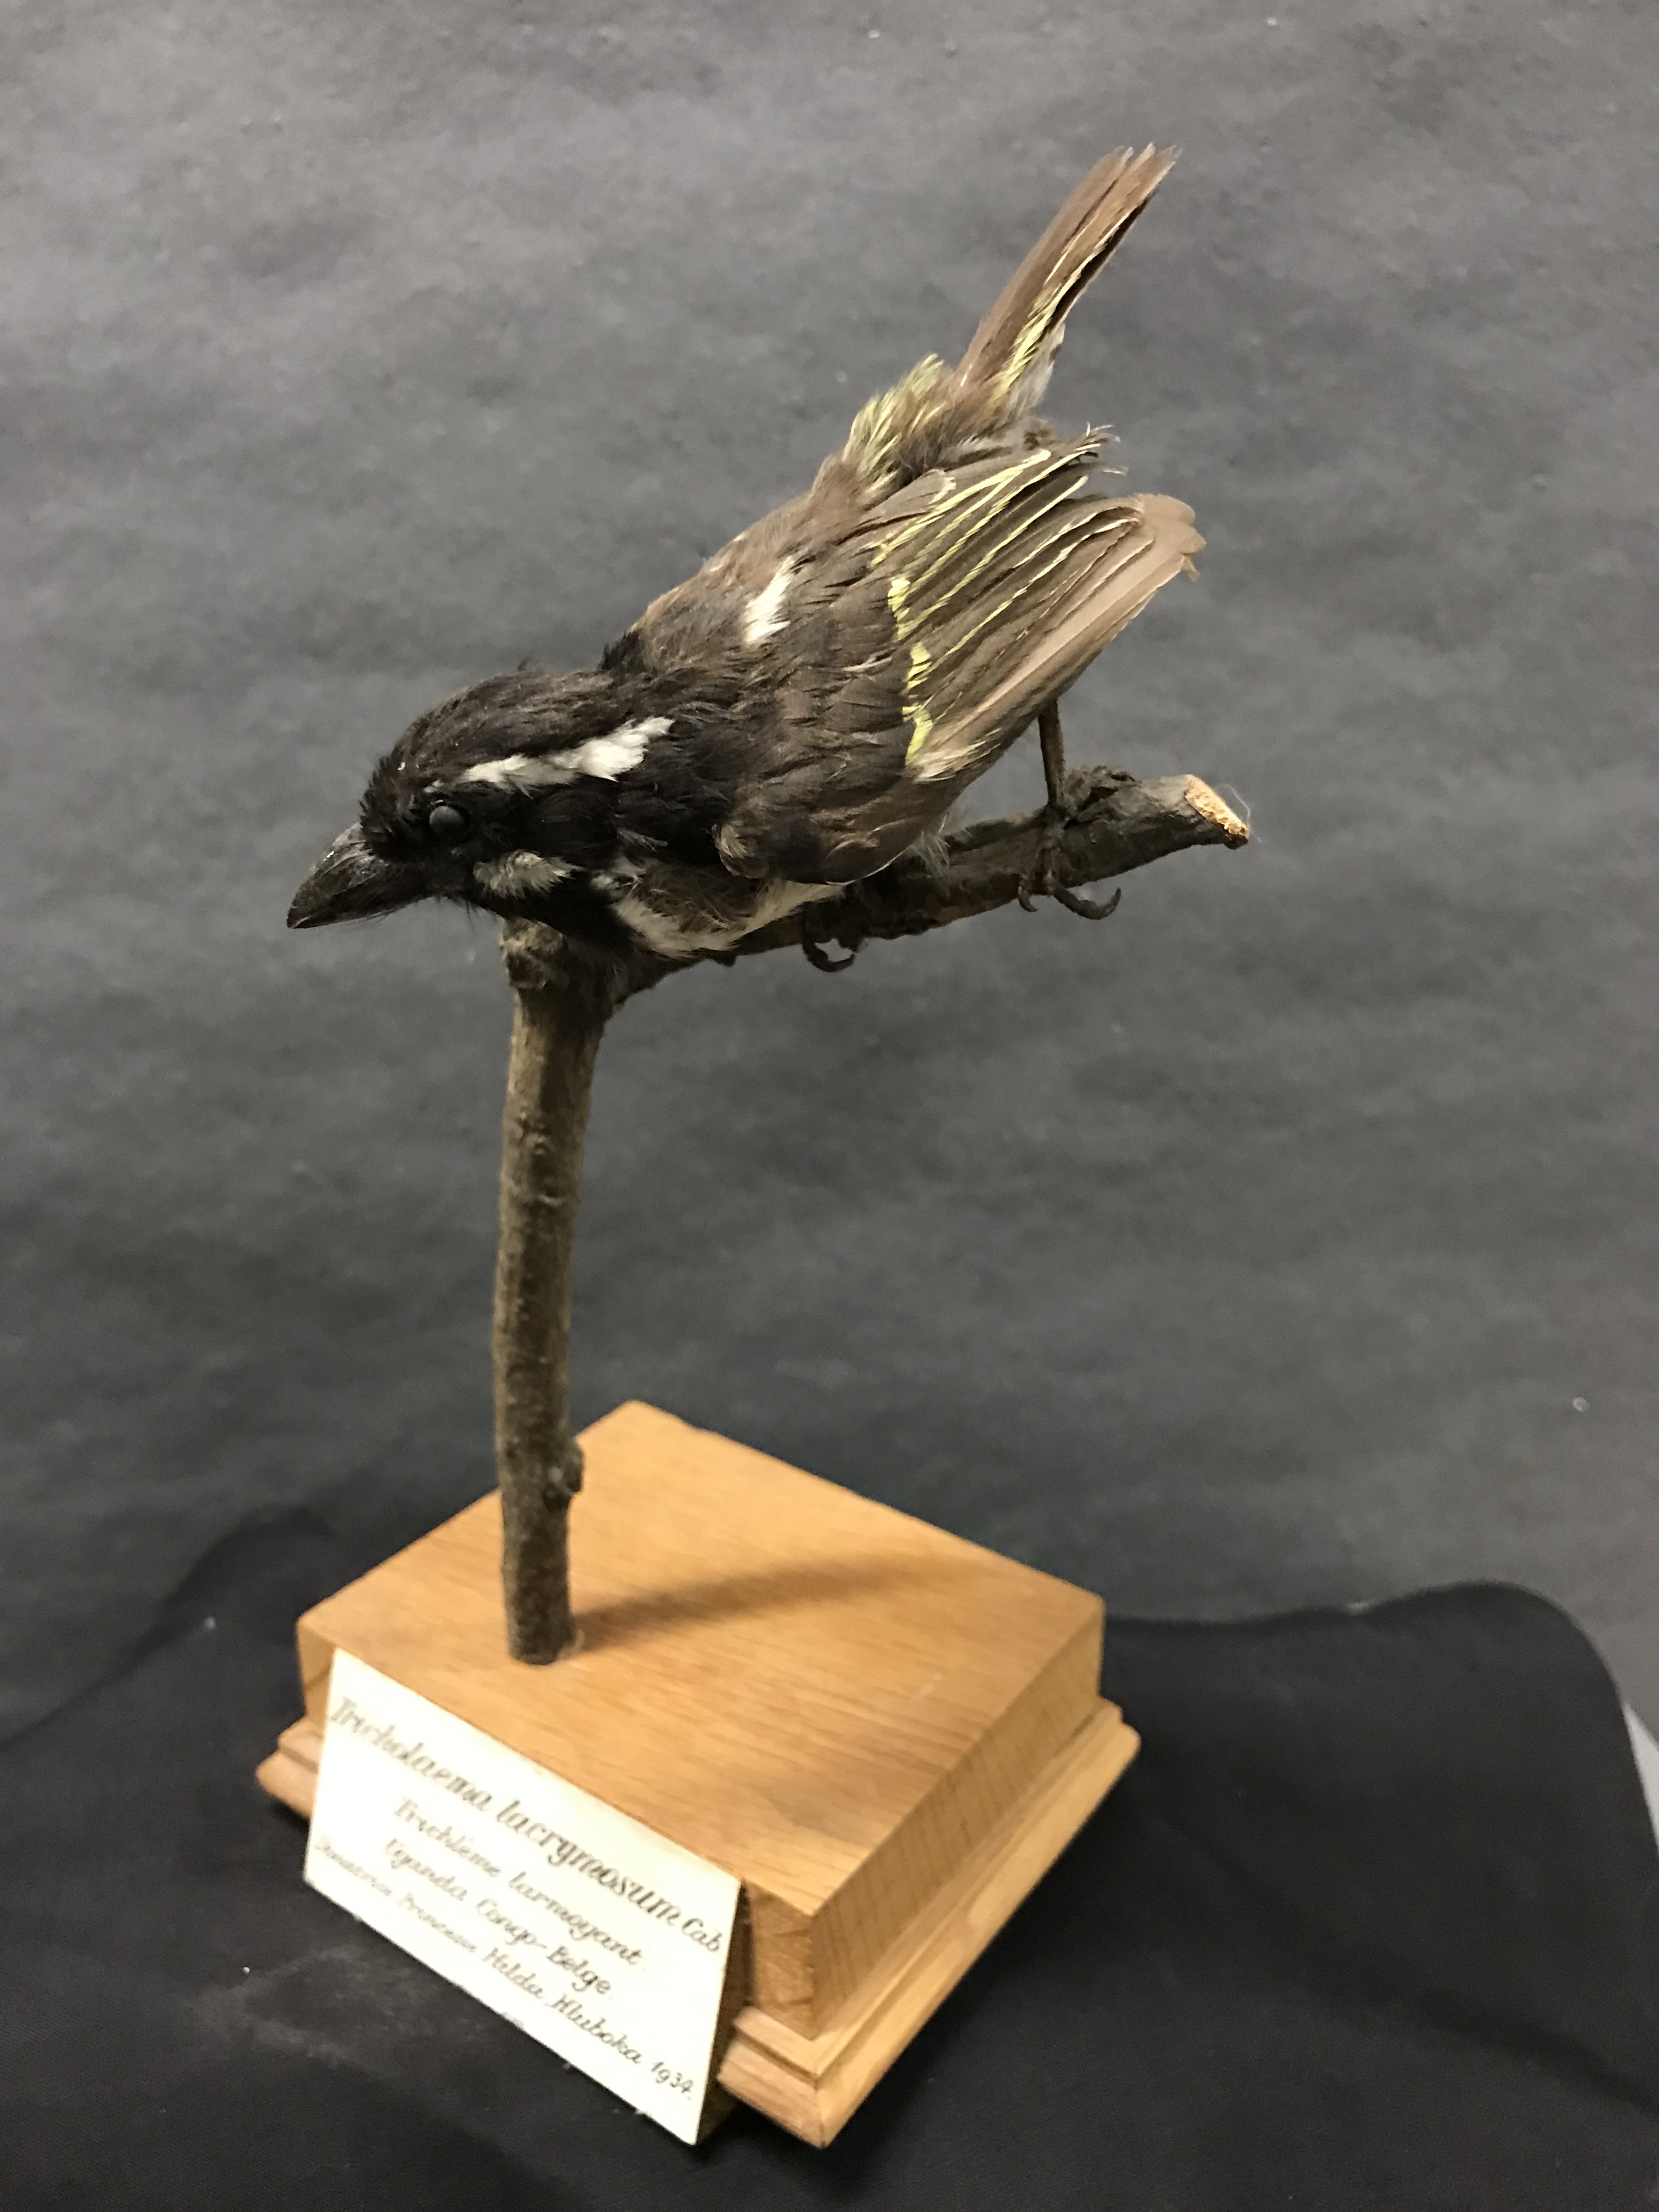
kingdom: Animalia
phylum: Chordata
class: Aves
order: Piciformes
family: Lybiidae
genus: Tricholaema
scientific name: Tricholaema lacrymosa
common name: Spot-flanked barbet
